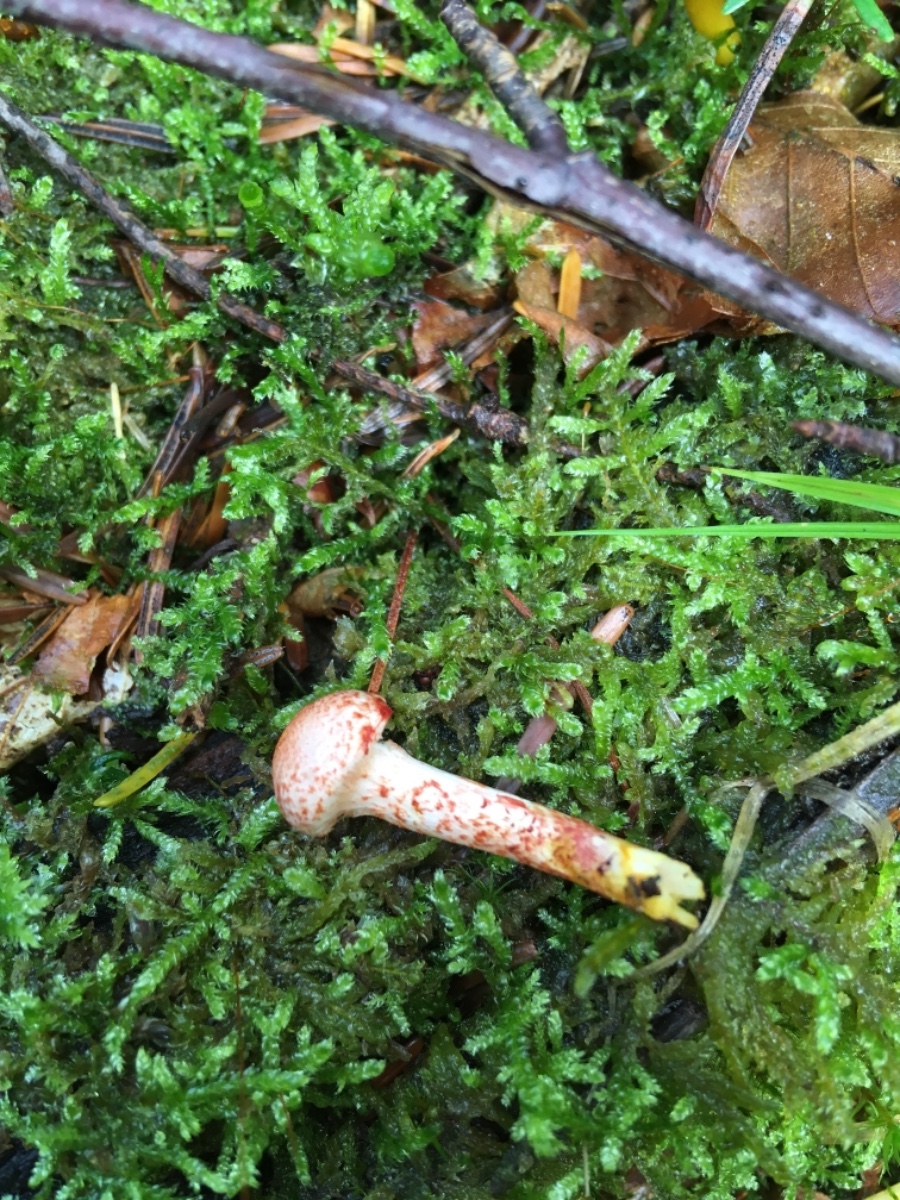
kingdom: Fungi
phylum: Basidiomycota
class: Agaricomycetes
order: Agaricales
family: Cortinariaceae
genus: Cortinarius
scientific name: Cortinarius bolaris
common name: cinnoberskællet slørhat
